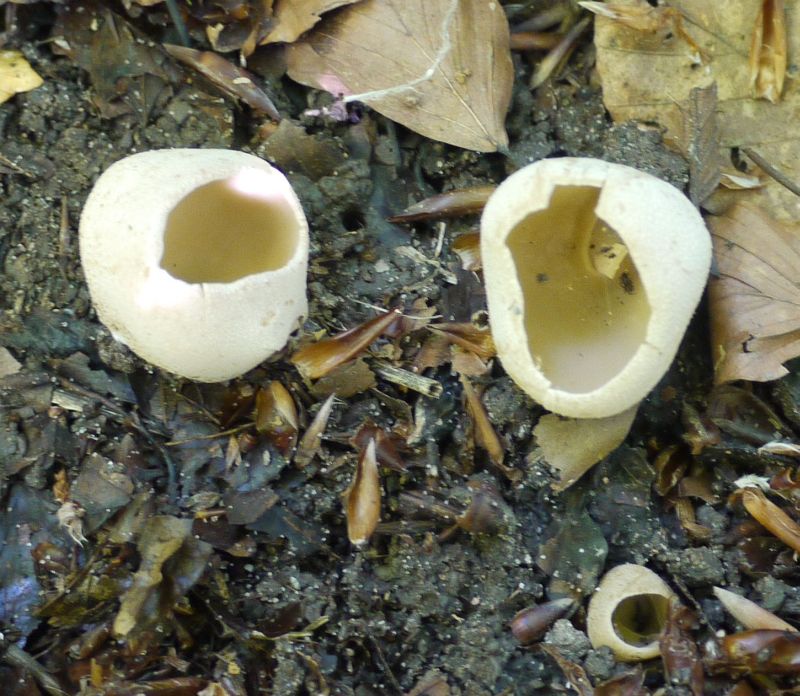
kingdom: Fungi
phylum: Ascomycota
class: Pezizomycetes
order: Pezizales
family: Pyronemataceae
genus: Tarzetta
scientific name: Tarzetta cupularis
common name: gulbrun pokalbæger
